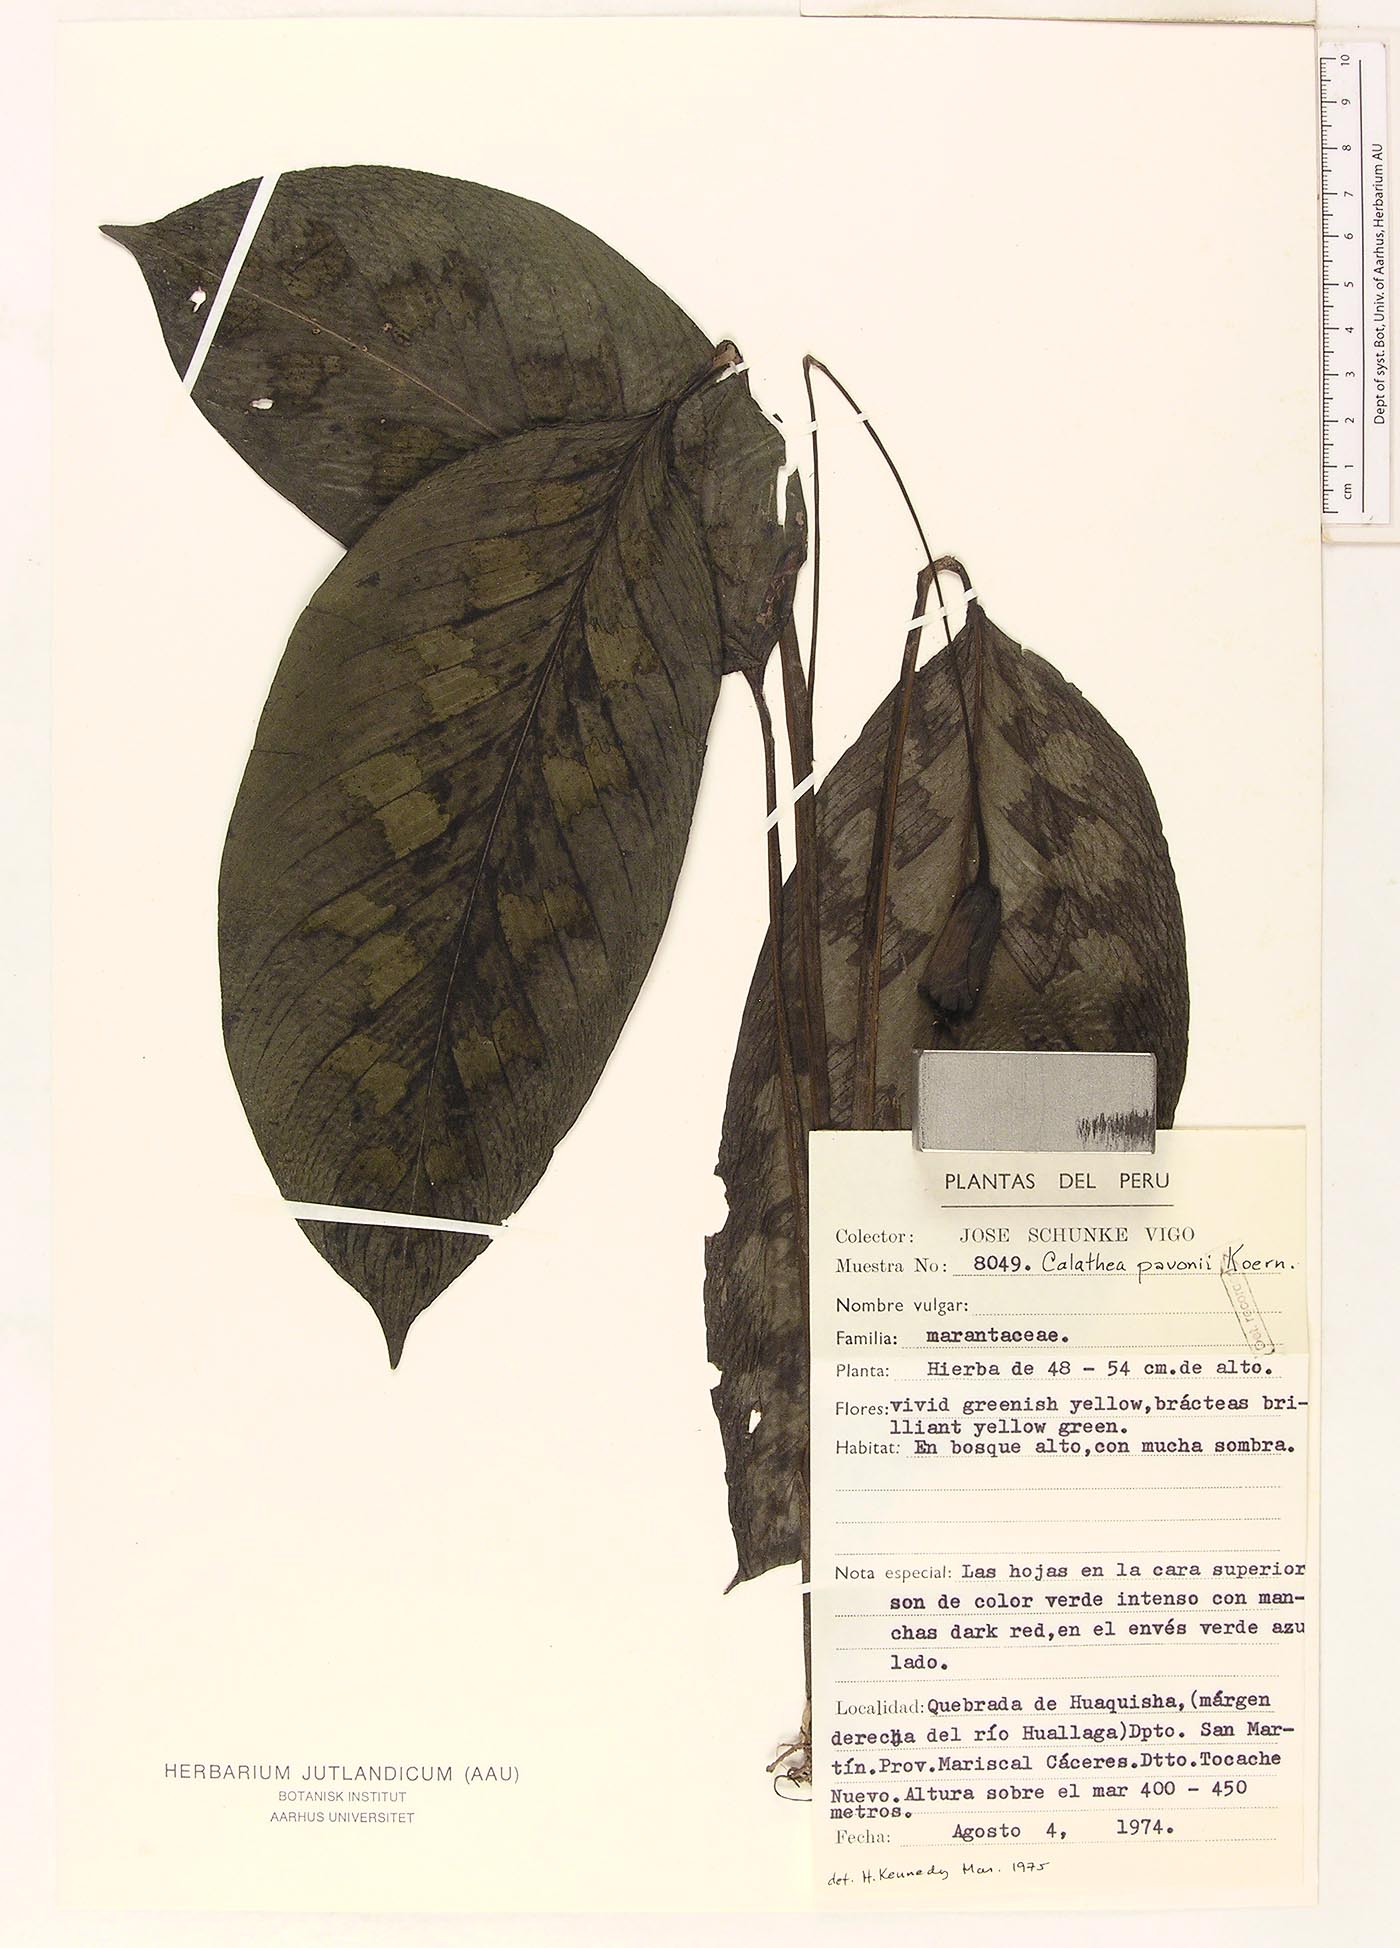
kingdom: Plantae
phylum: Tracheophyta
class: Liliopsida
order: Zingiberales
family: Marantaceae
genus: Goeppertia
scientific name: Goeppertia pavonii
